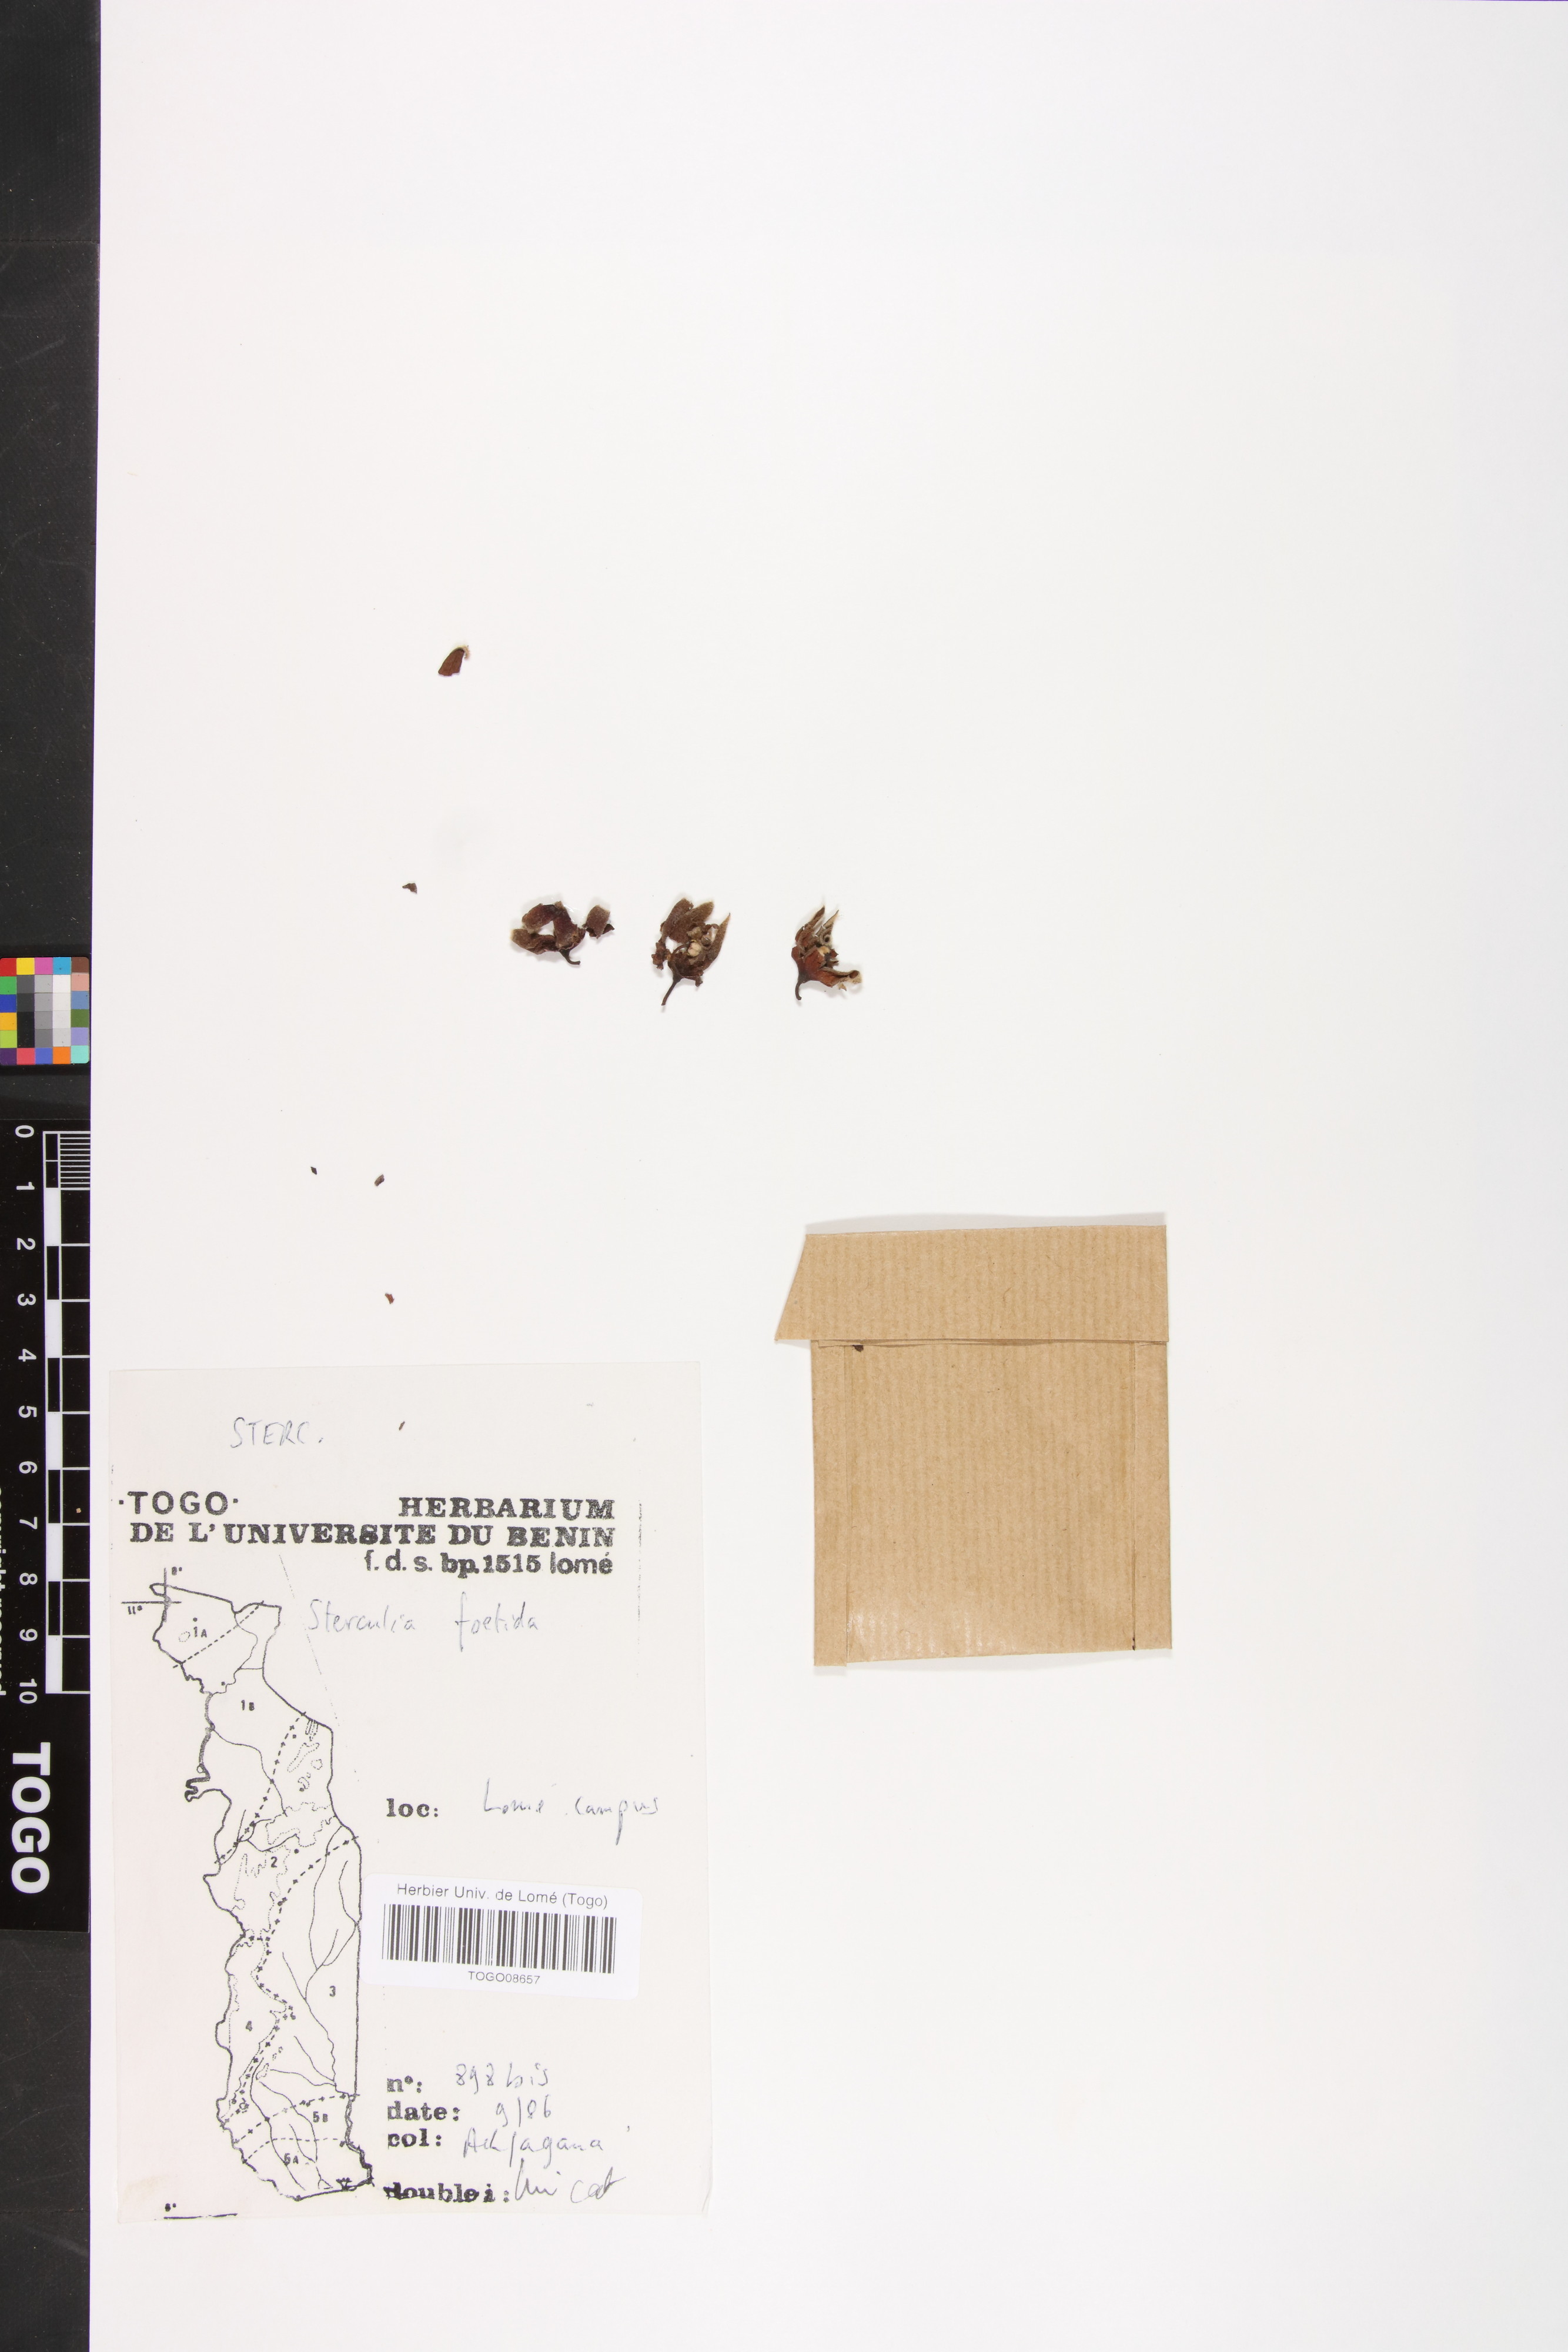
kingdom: Plantae
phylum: Tracheophyta
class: Magnoliopsida
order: Malvales
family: Malvaceae
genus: Sterculia
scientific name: Sterculia foetida
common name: Hazel sterculia
